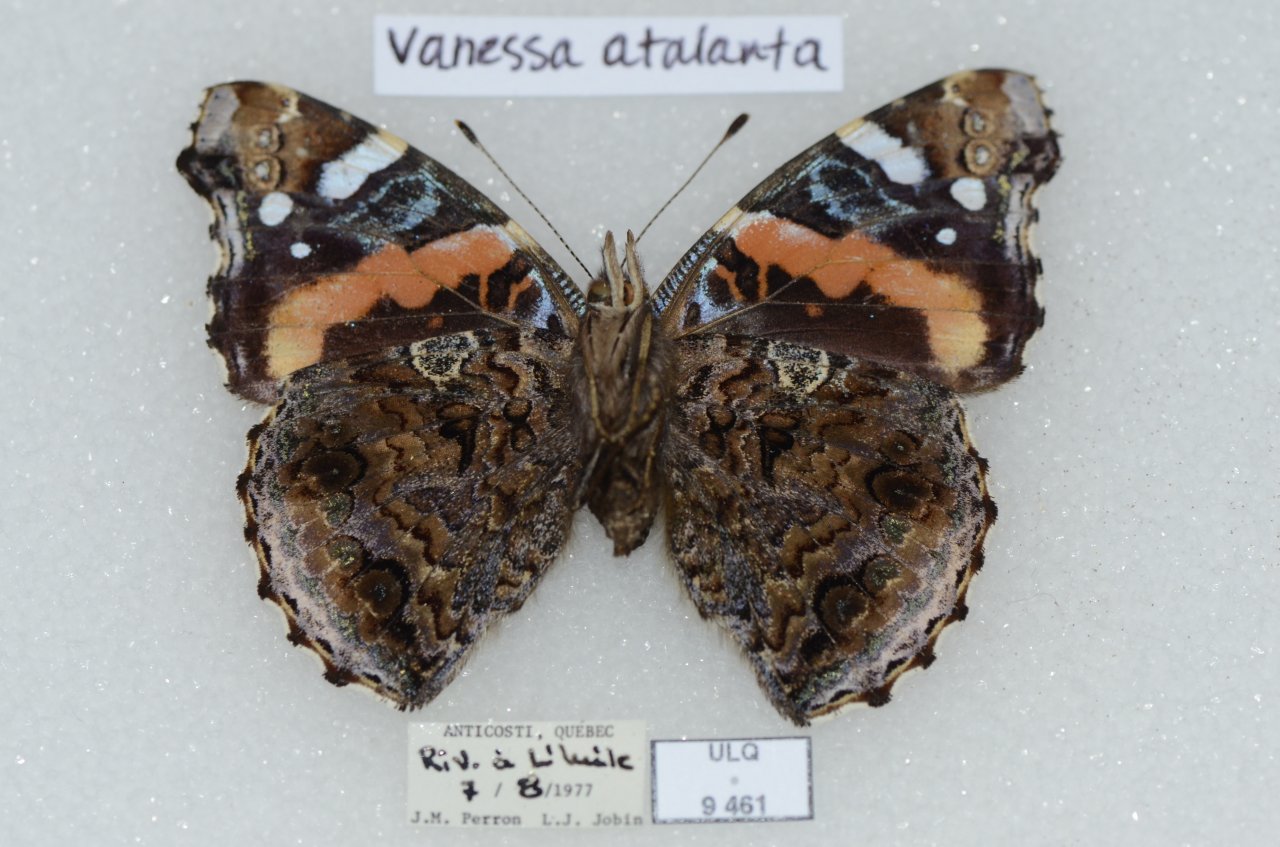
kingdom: Animalia
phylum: Arthropoda
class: Insecta
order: Lepidoptera
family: Nymphalidae
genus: Vanessa
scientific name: Vanessa atalanta
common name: Red Admiral
